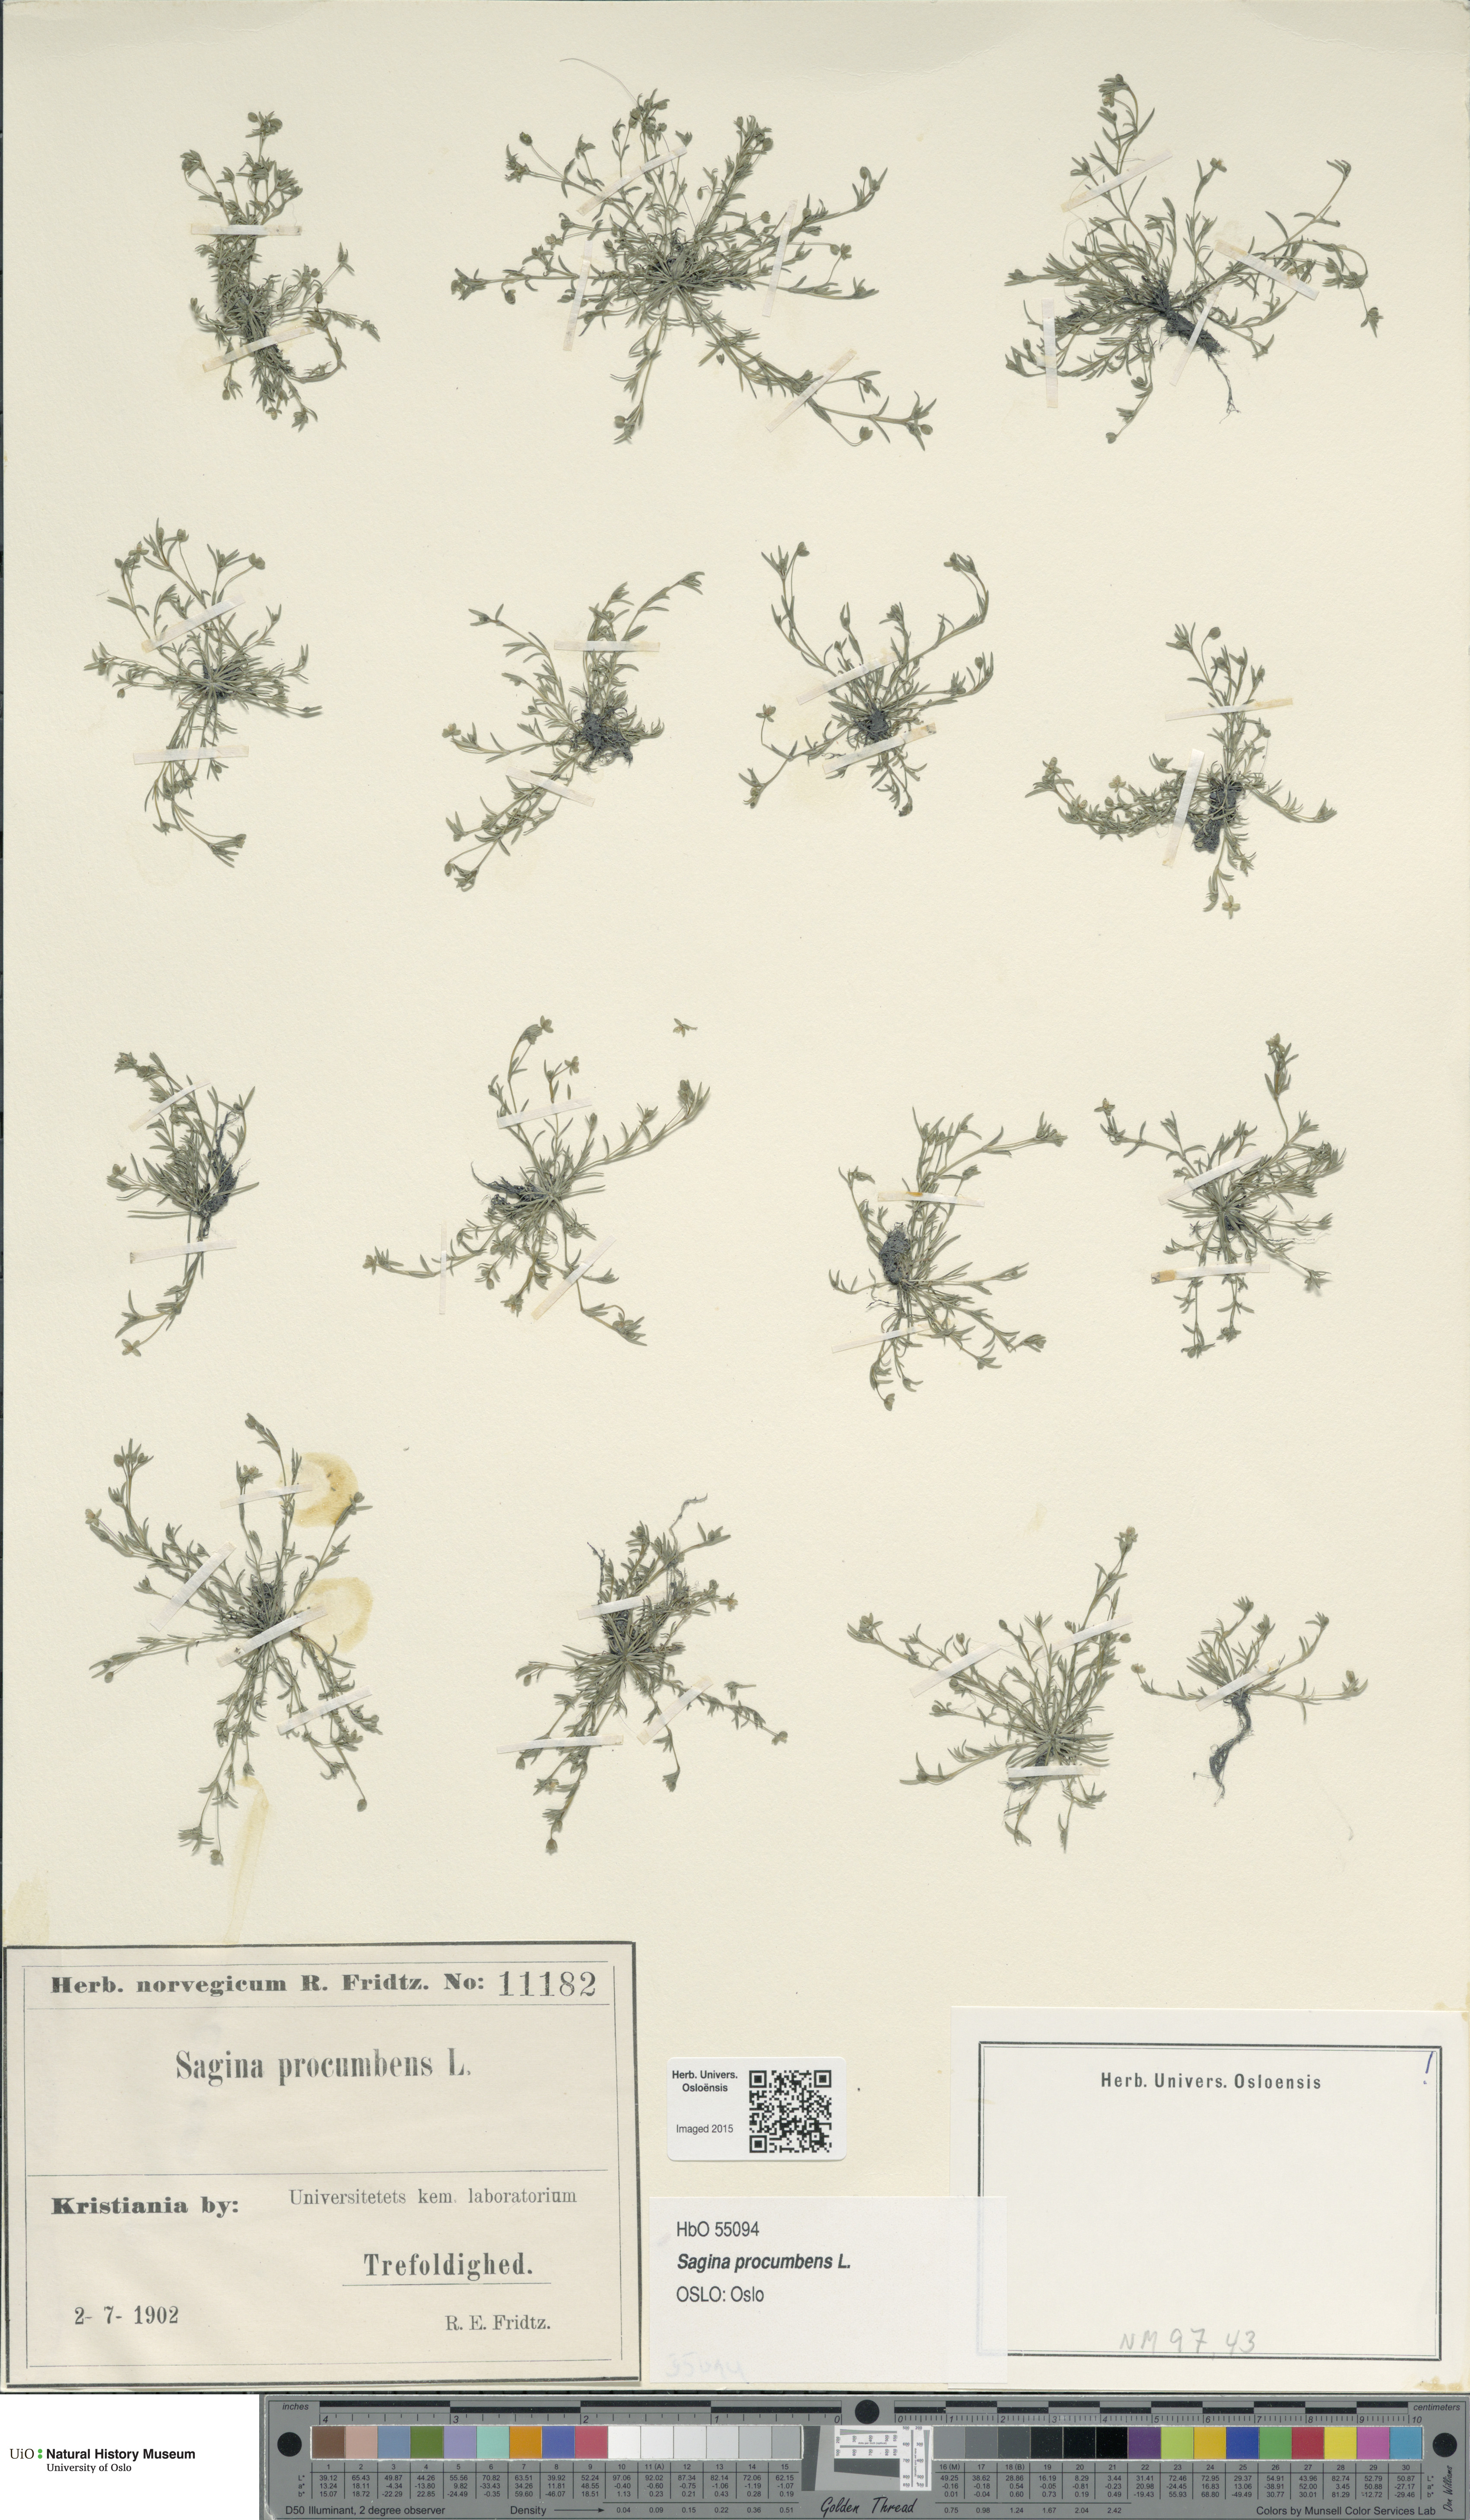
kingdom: Plantae
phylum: Tracheophyta
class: Magnoliopsida
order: Caryophyllales
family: Caryophyllaceae
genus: Sagina
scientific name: Sagina procumbens
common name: Procumbent pearlwort
